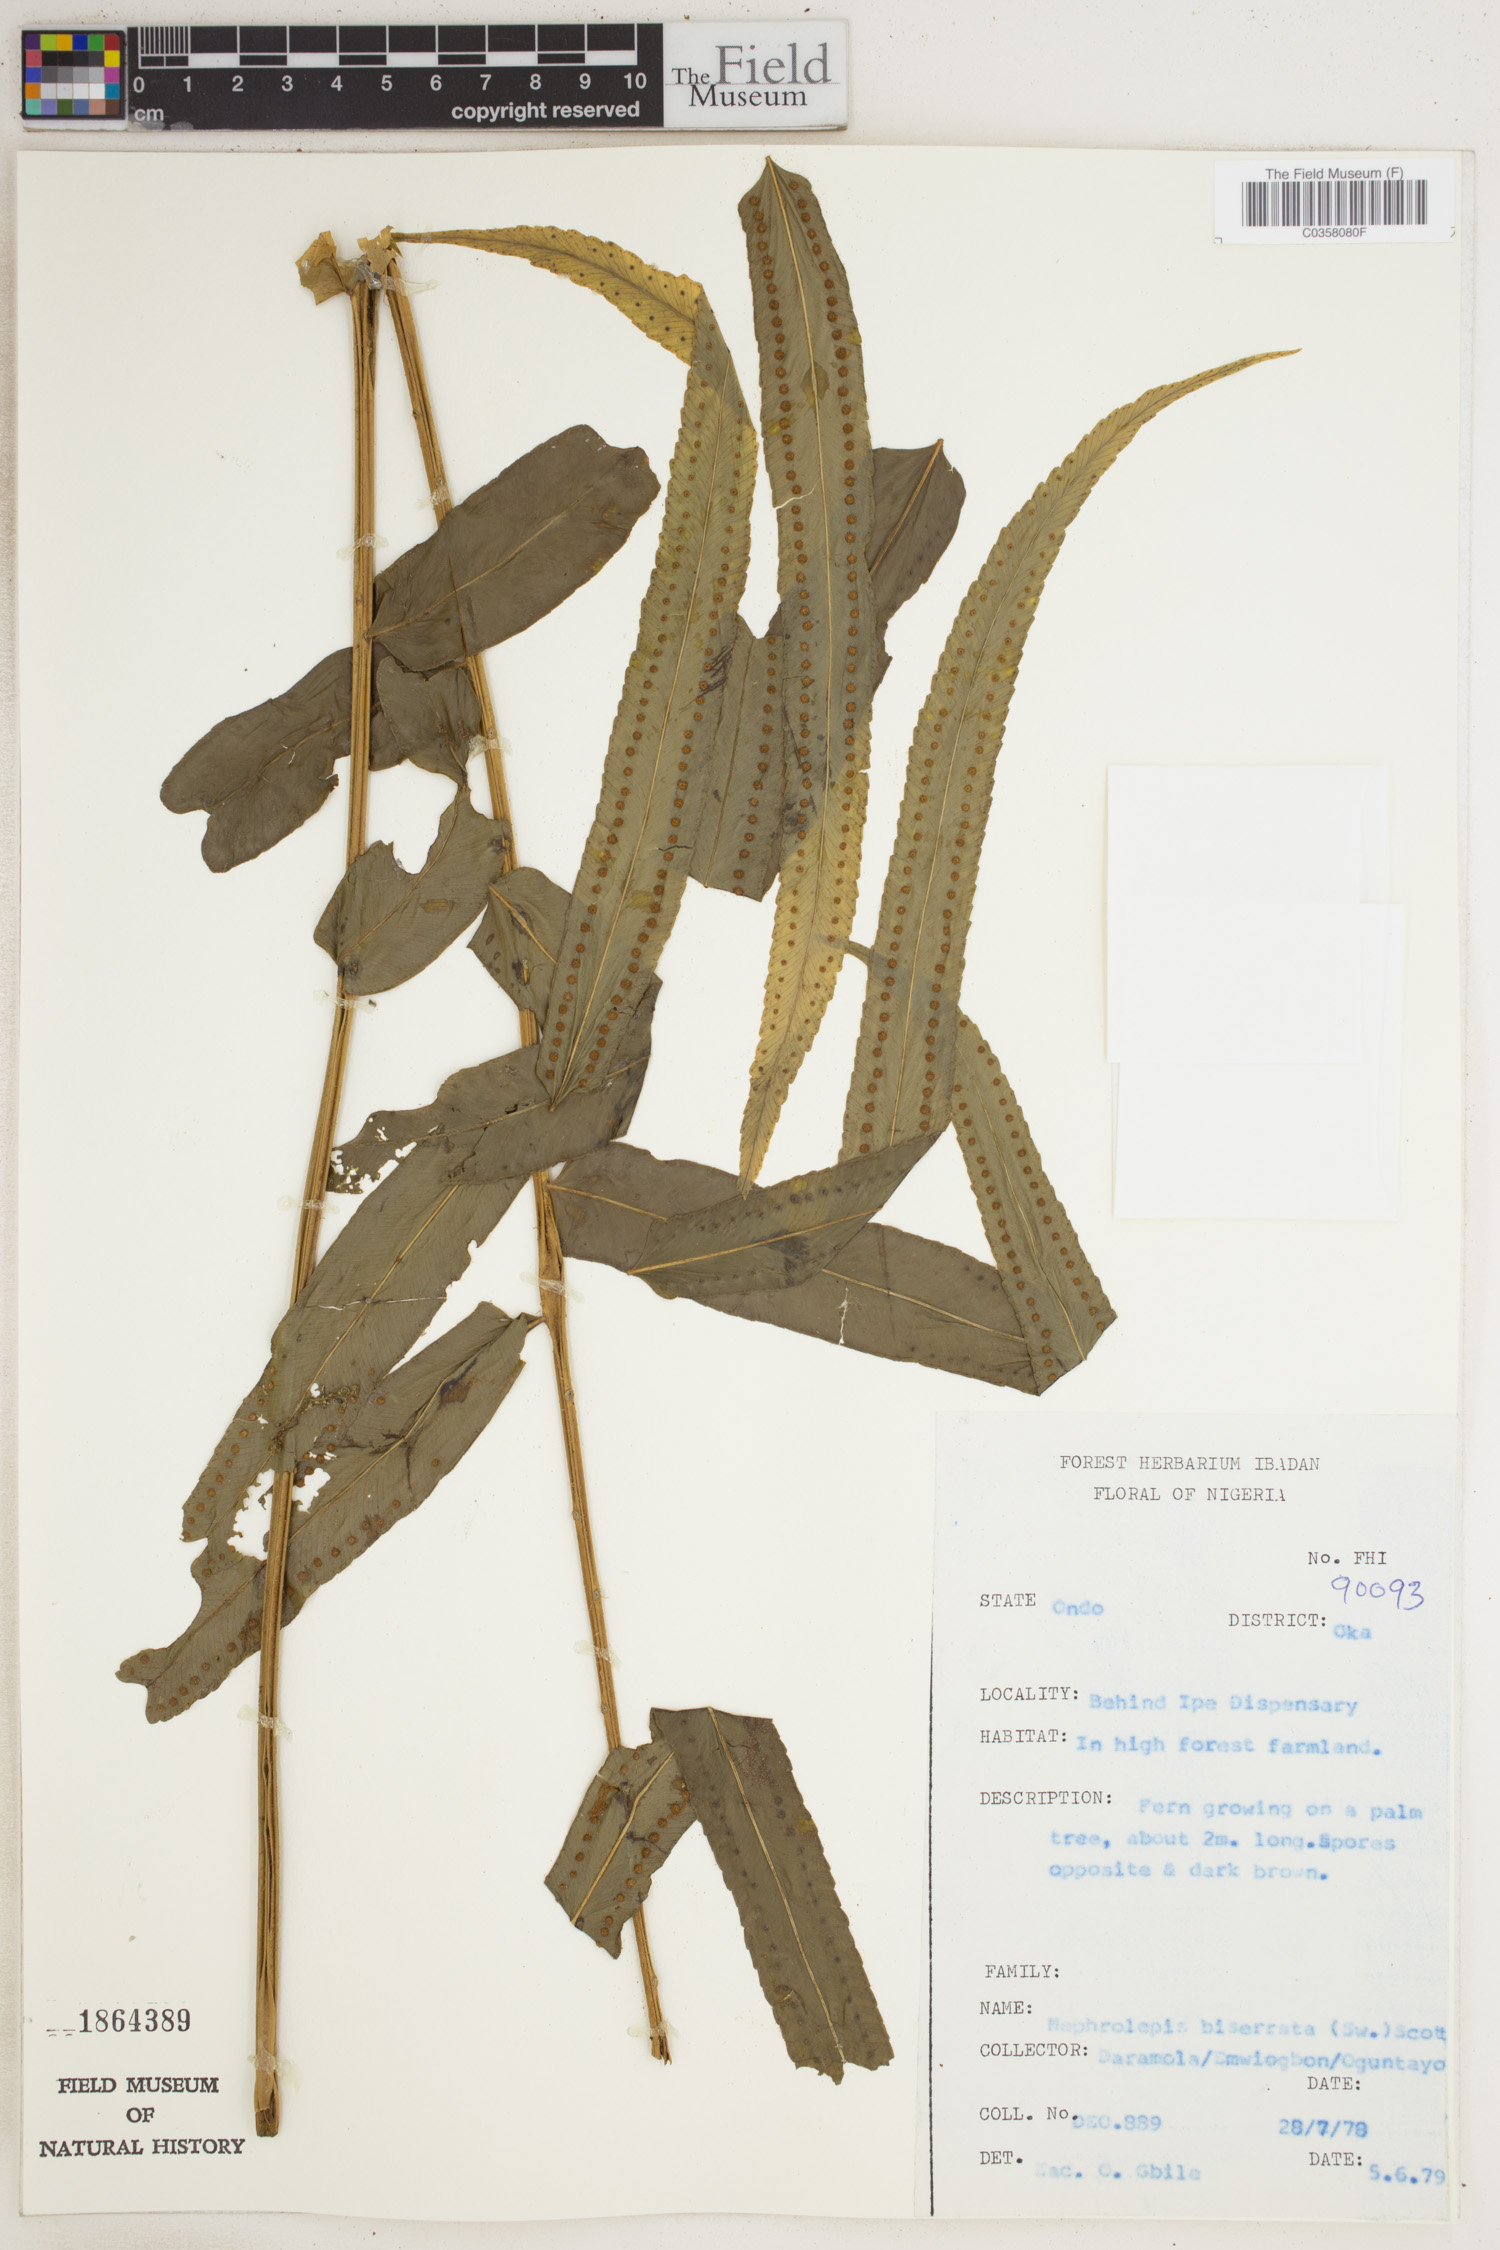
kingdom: Plantae
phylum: Tracheophyta
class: Polypodiopsida
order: Polypodiales
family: Nephrolepidaceae
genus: Nephrolepis
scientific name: Nephrolepis biserrata
